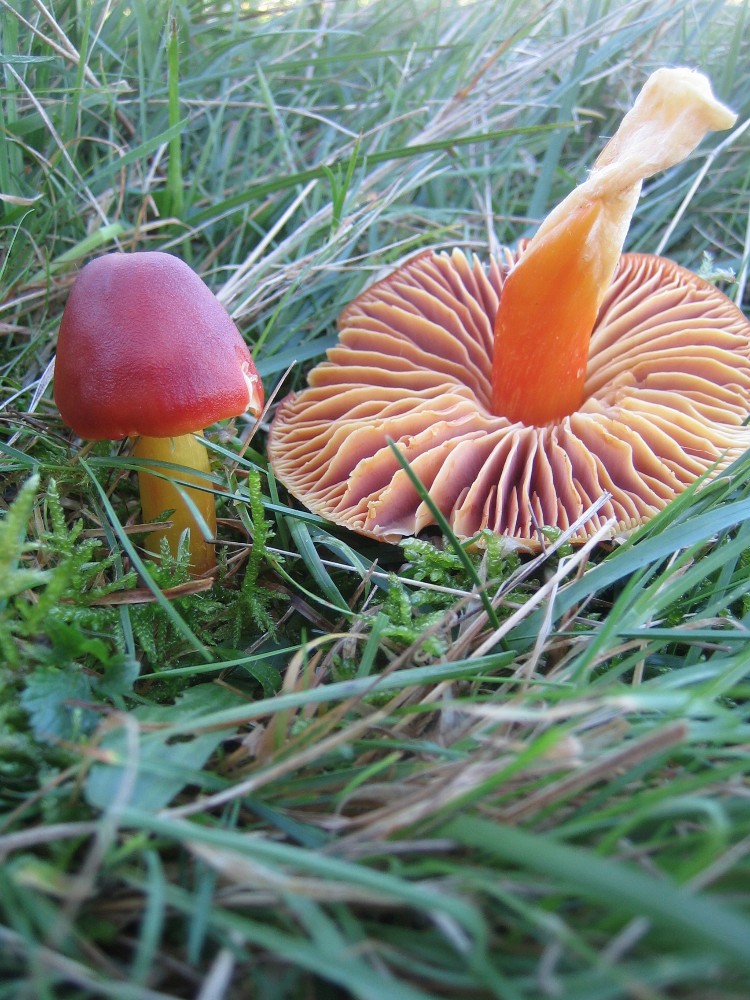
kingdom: Fungi
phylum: Basidiomycota
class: Agaricomycetes
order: Agaricales
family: Hygrophoraceae
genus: Hygrocybe
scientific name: Hygrocybe punicea
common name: skarlagen-vokshat
